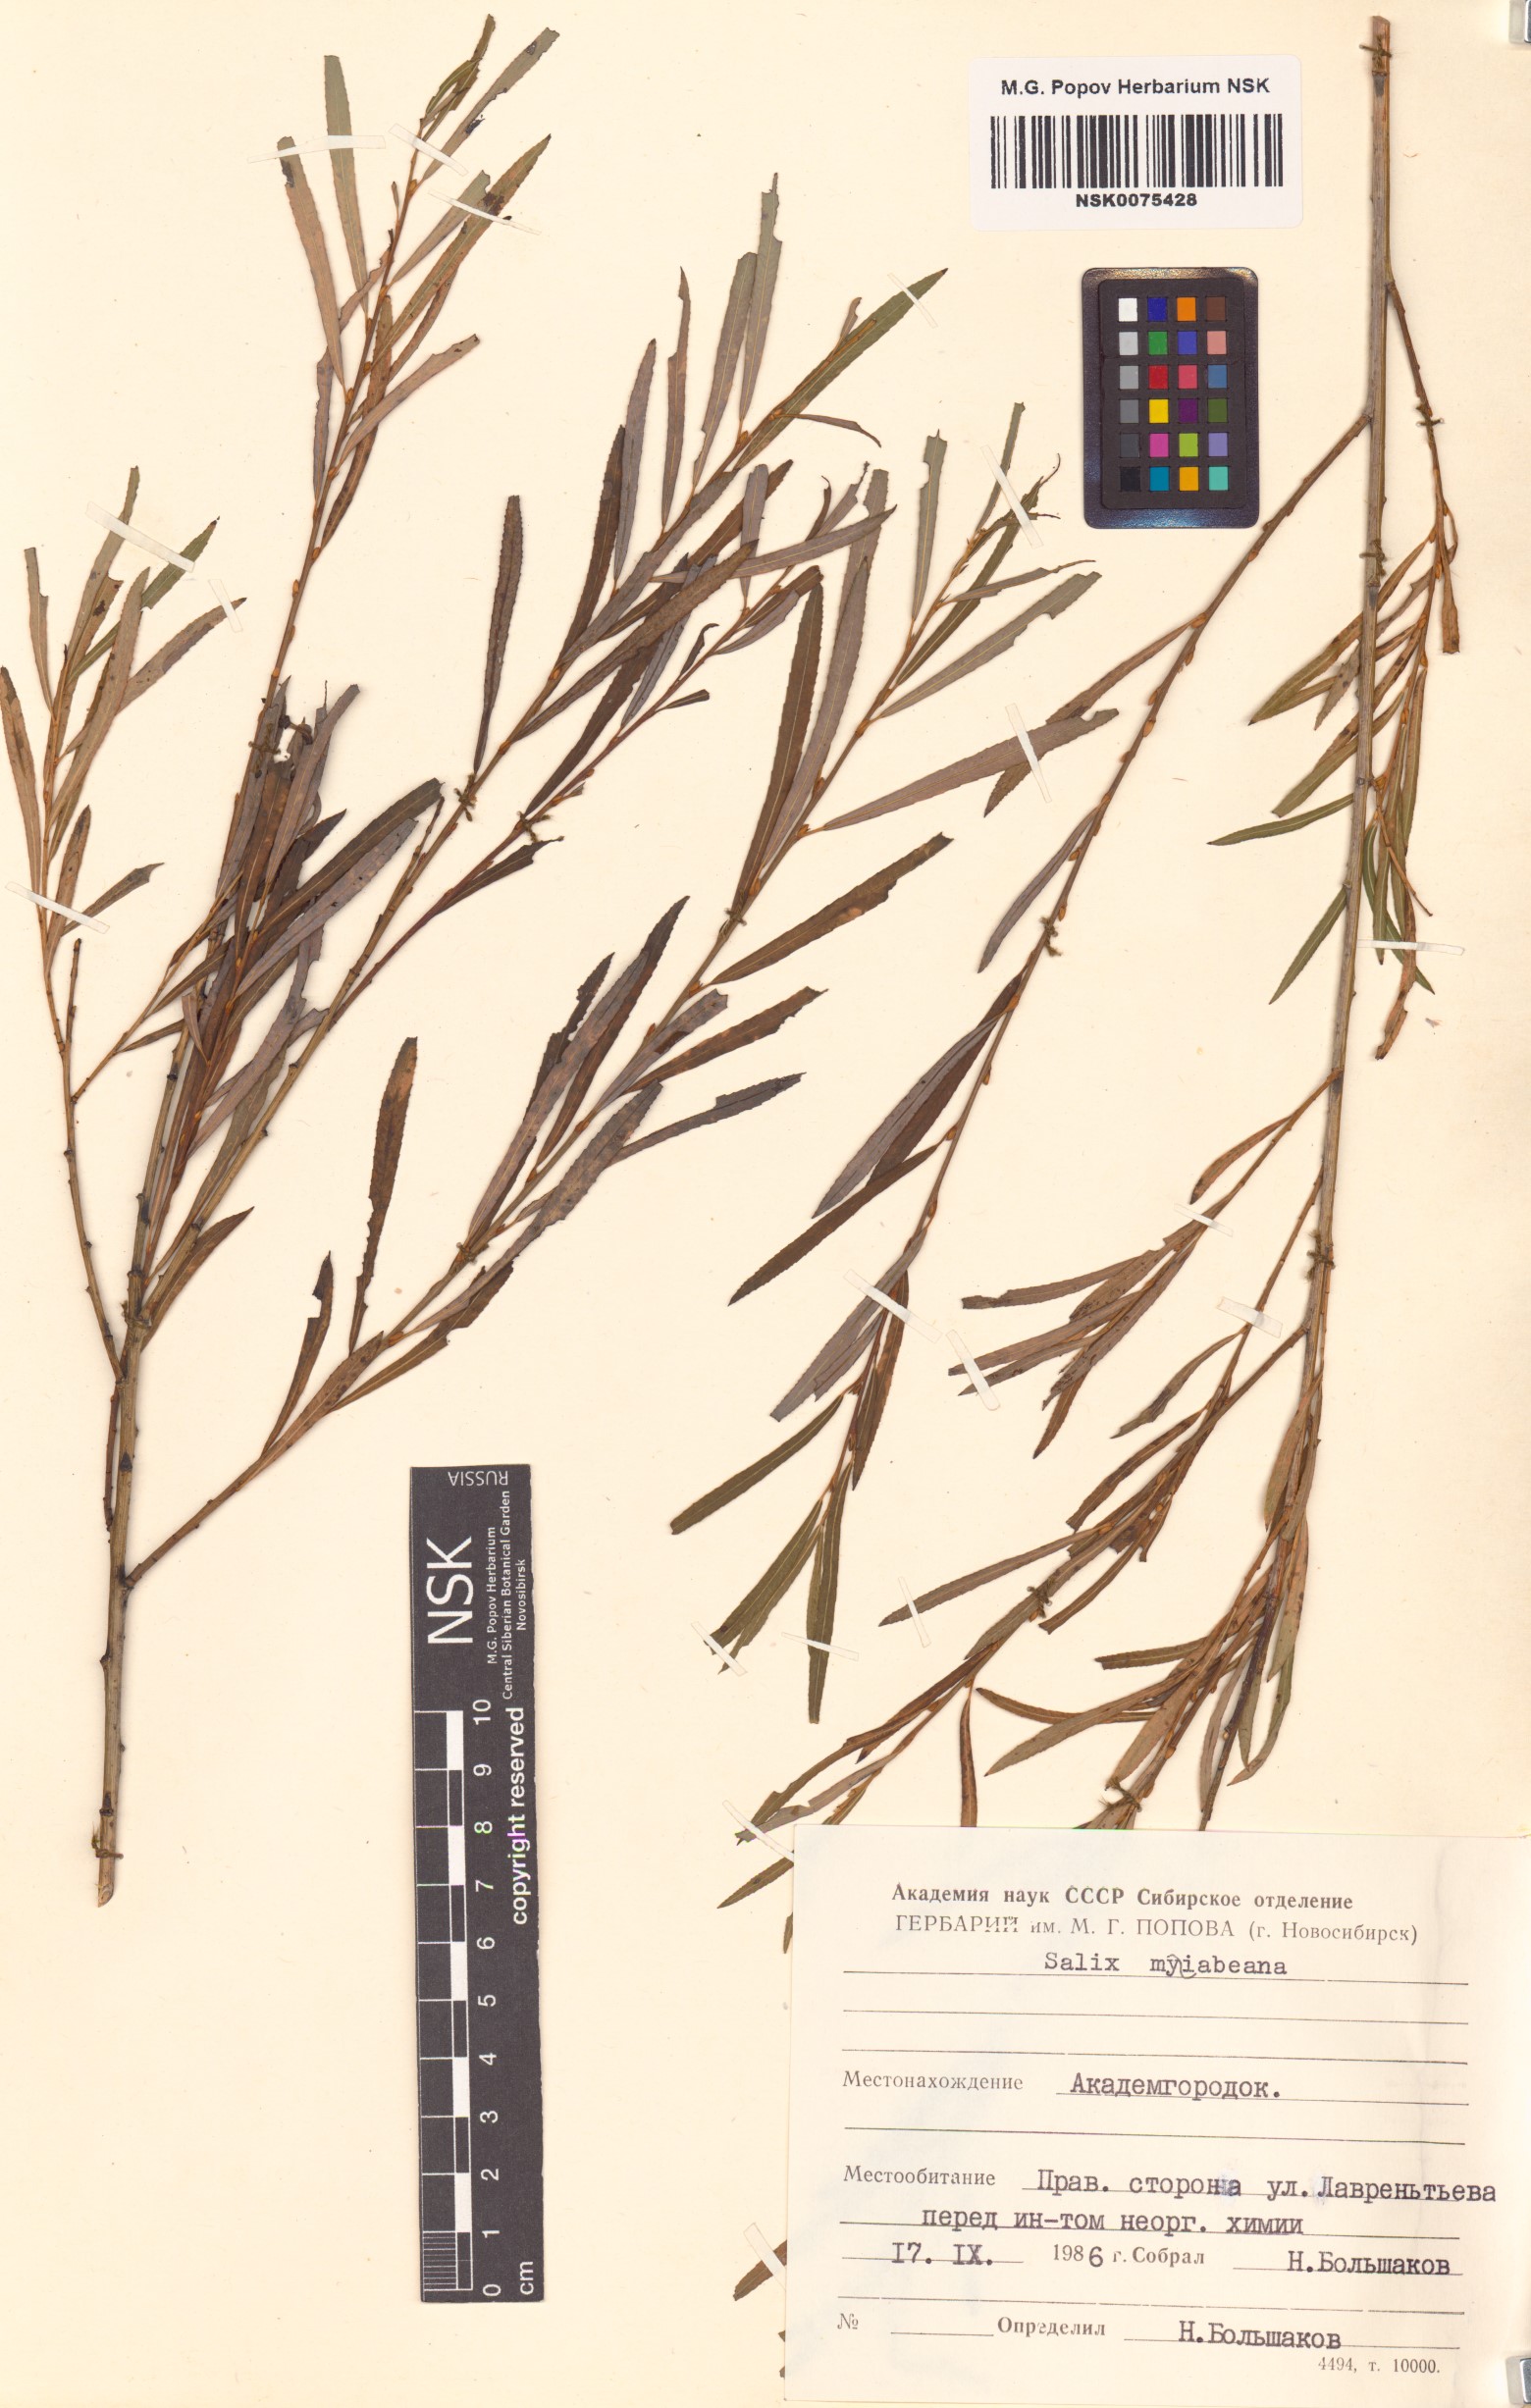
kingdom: Plantae
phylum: Tracheophyta
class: Magnoliopsida
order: Malpighiales
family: Salicaceae
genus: Salix
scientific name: Salix miyabeana
